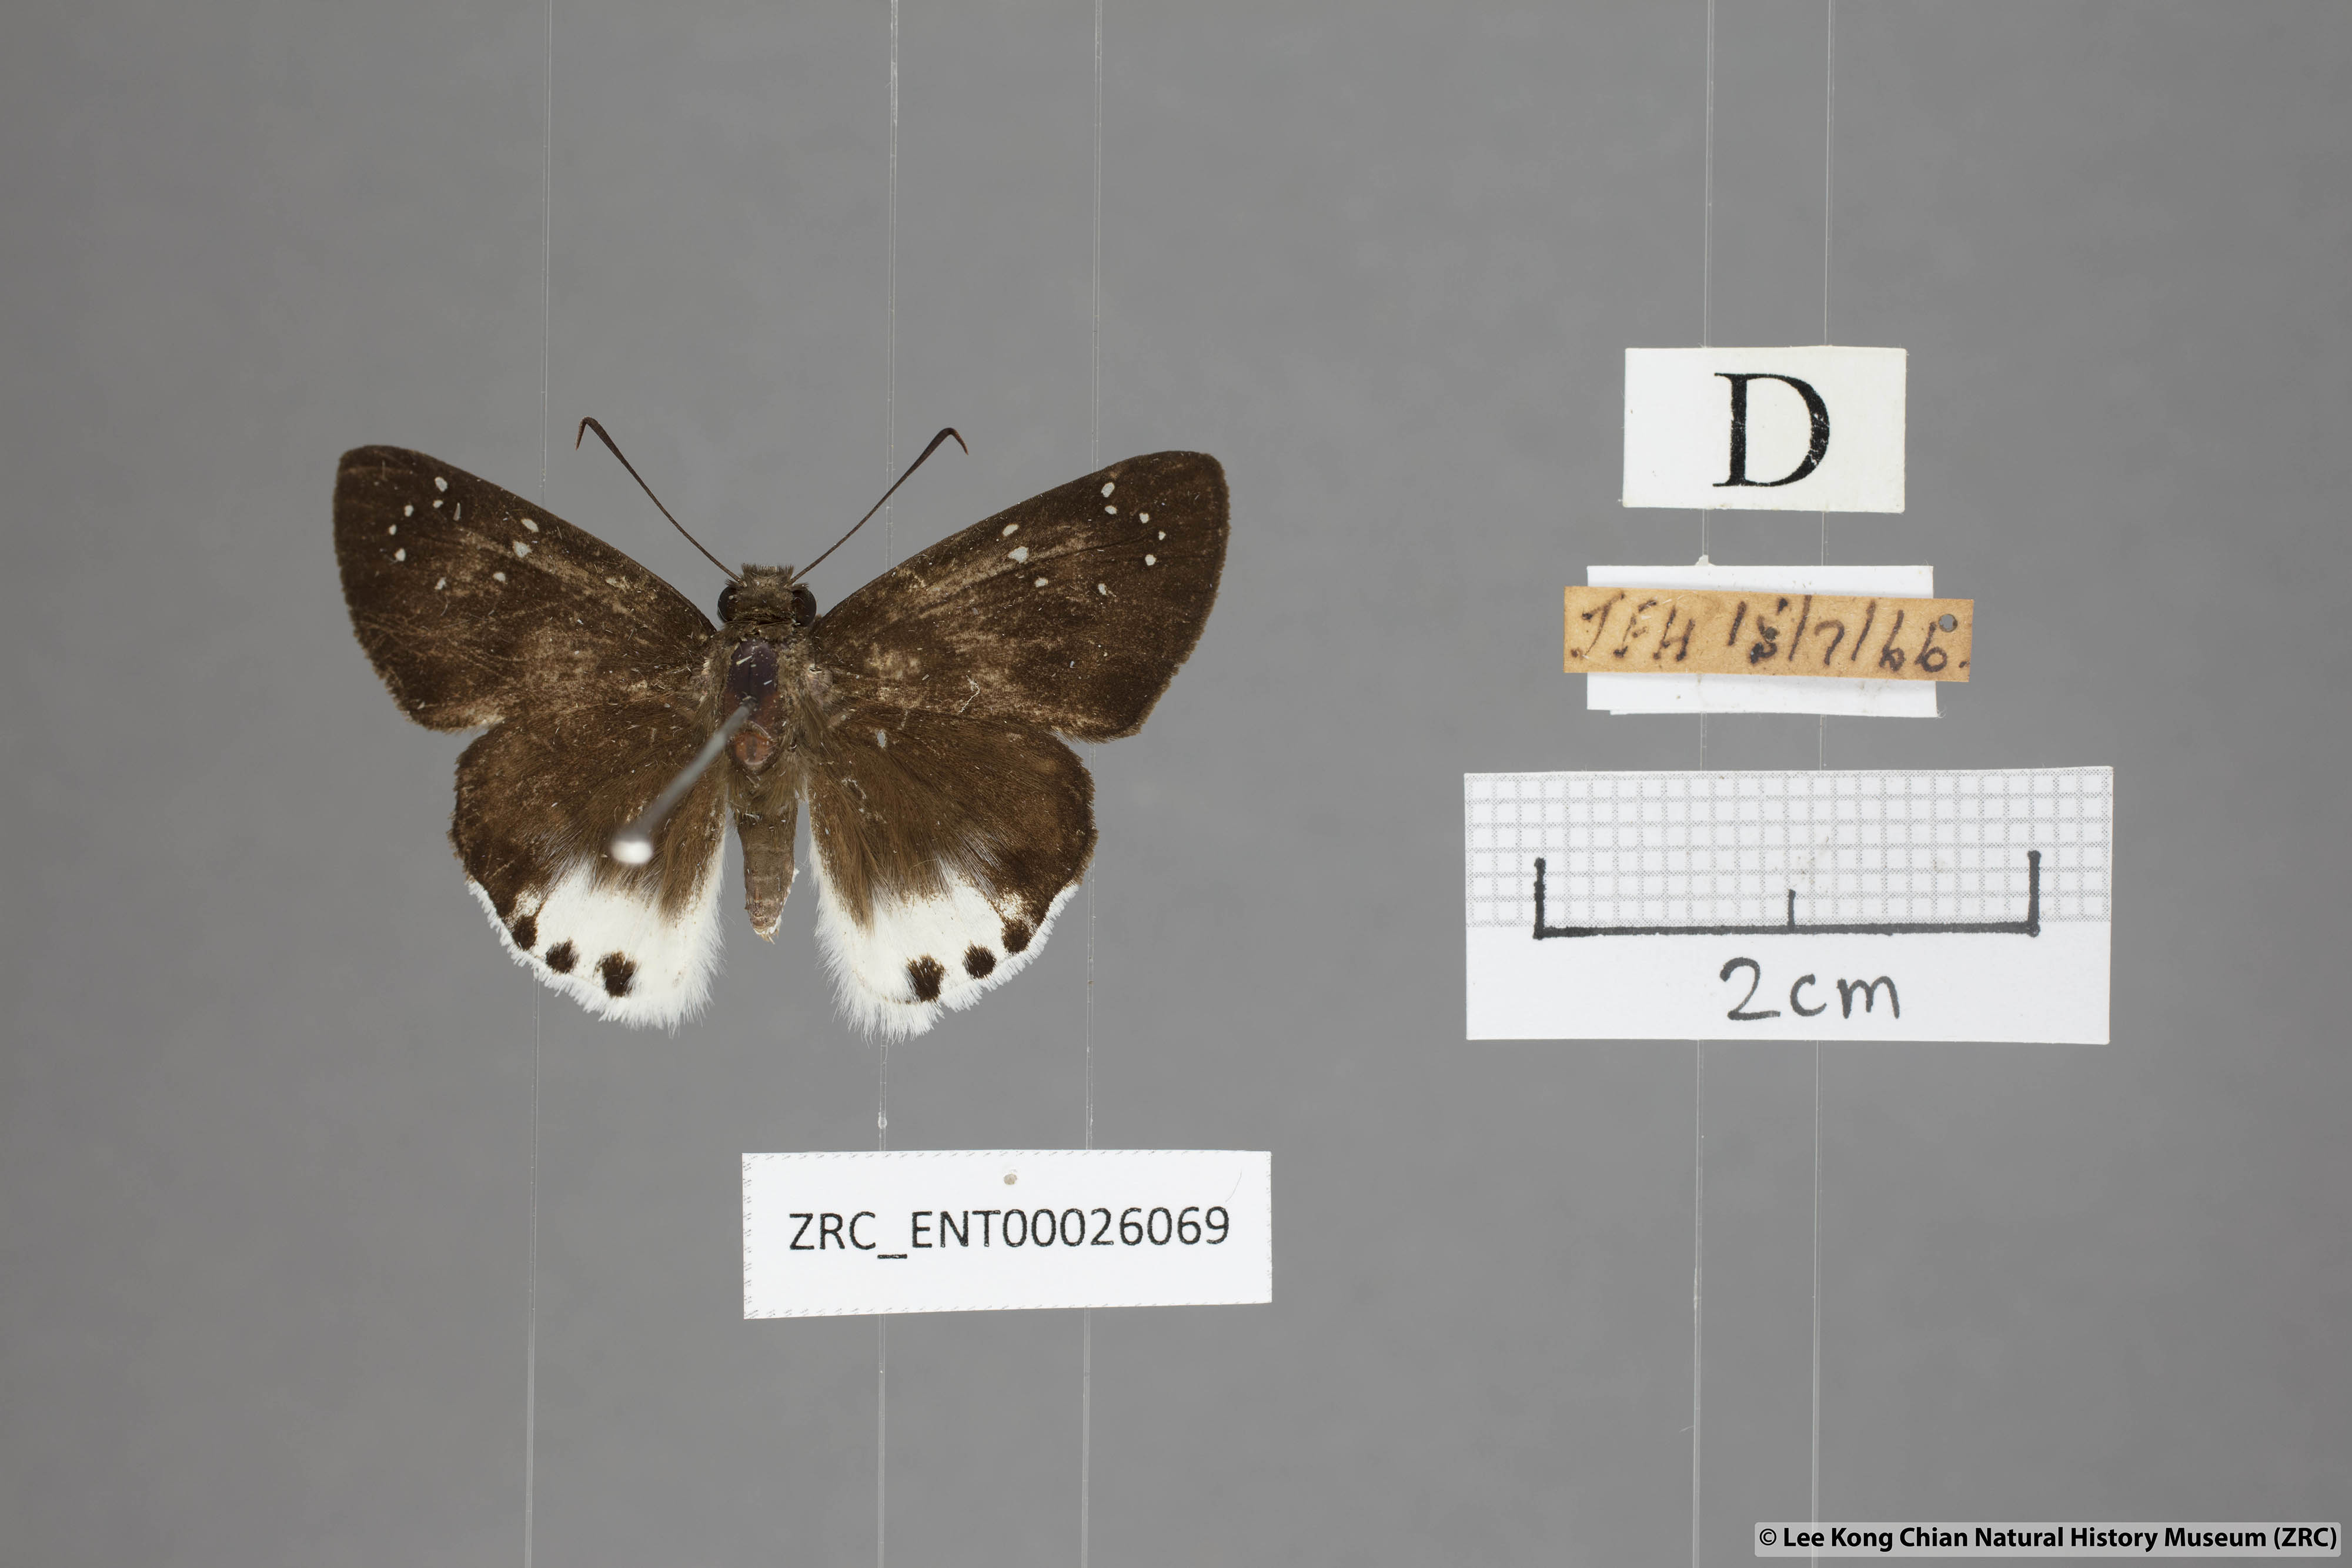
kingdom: Animalia
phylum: Arthropoda
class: Insecta
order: Lepidoptera
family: Hesperiidae
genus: Tagiades
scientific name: Tagiades waterstradti
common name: Waterstradt snow flat
